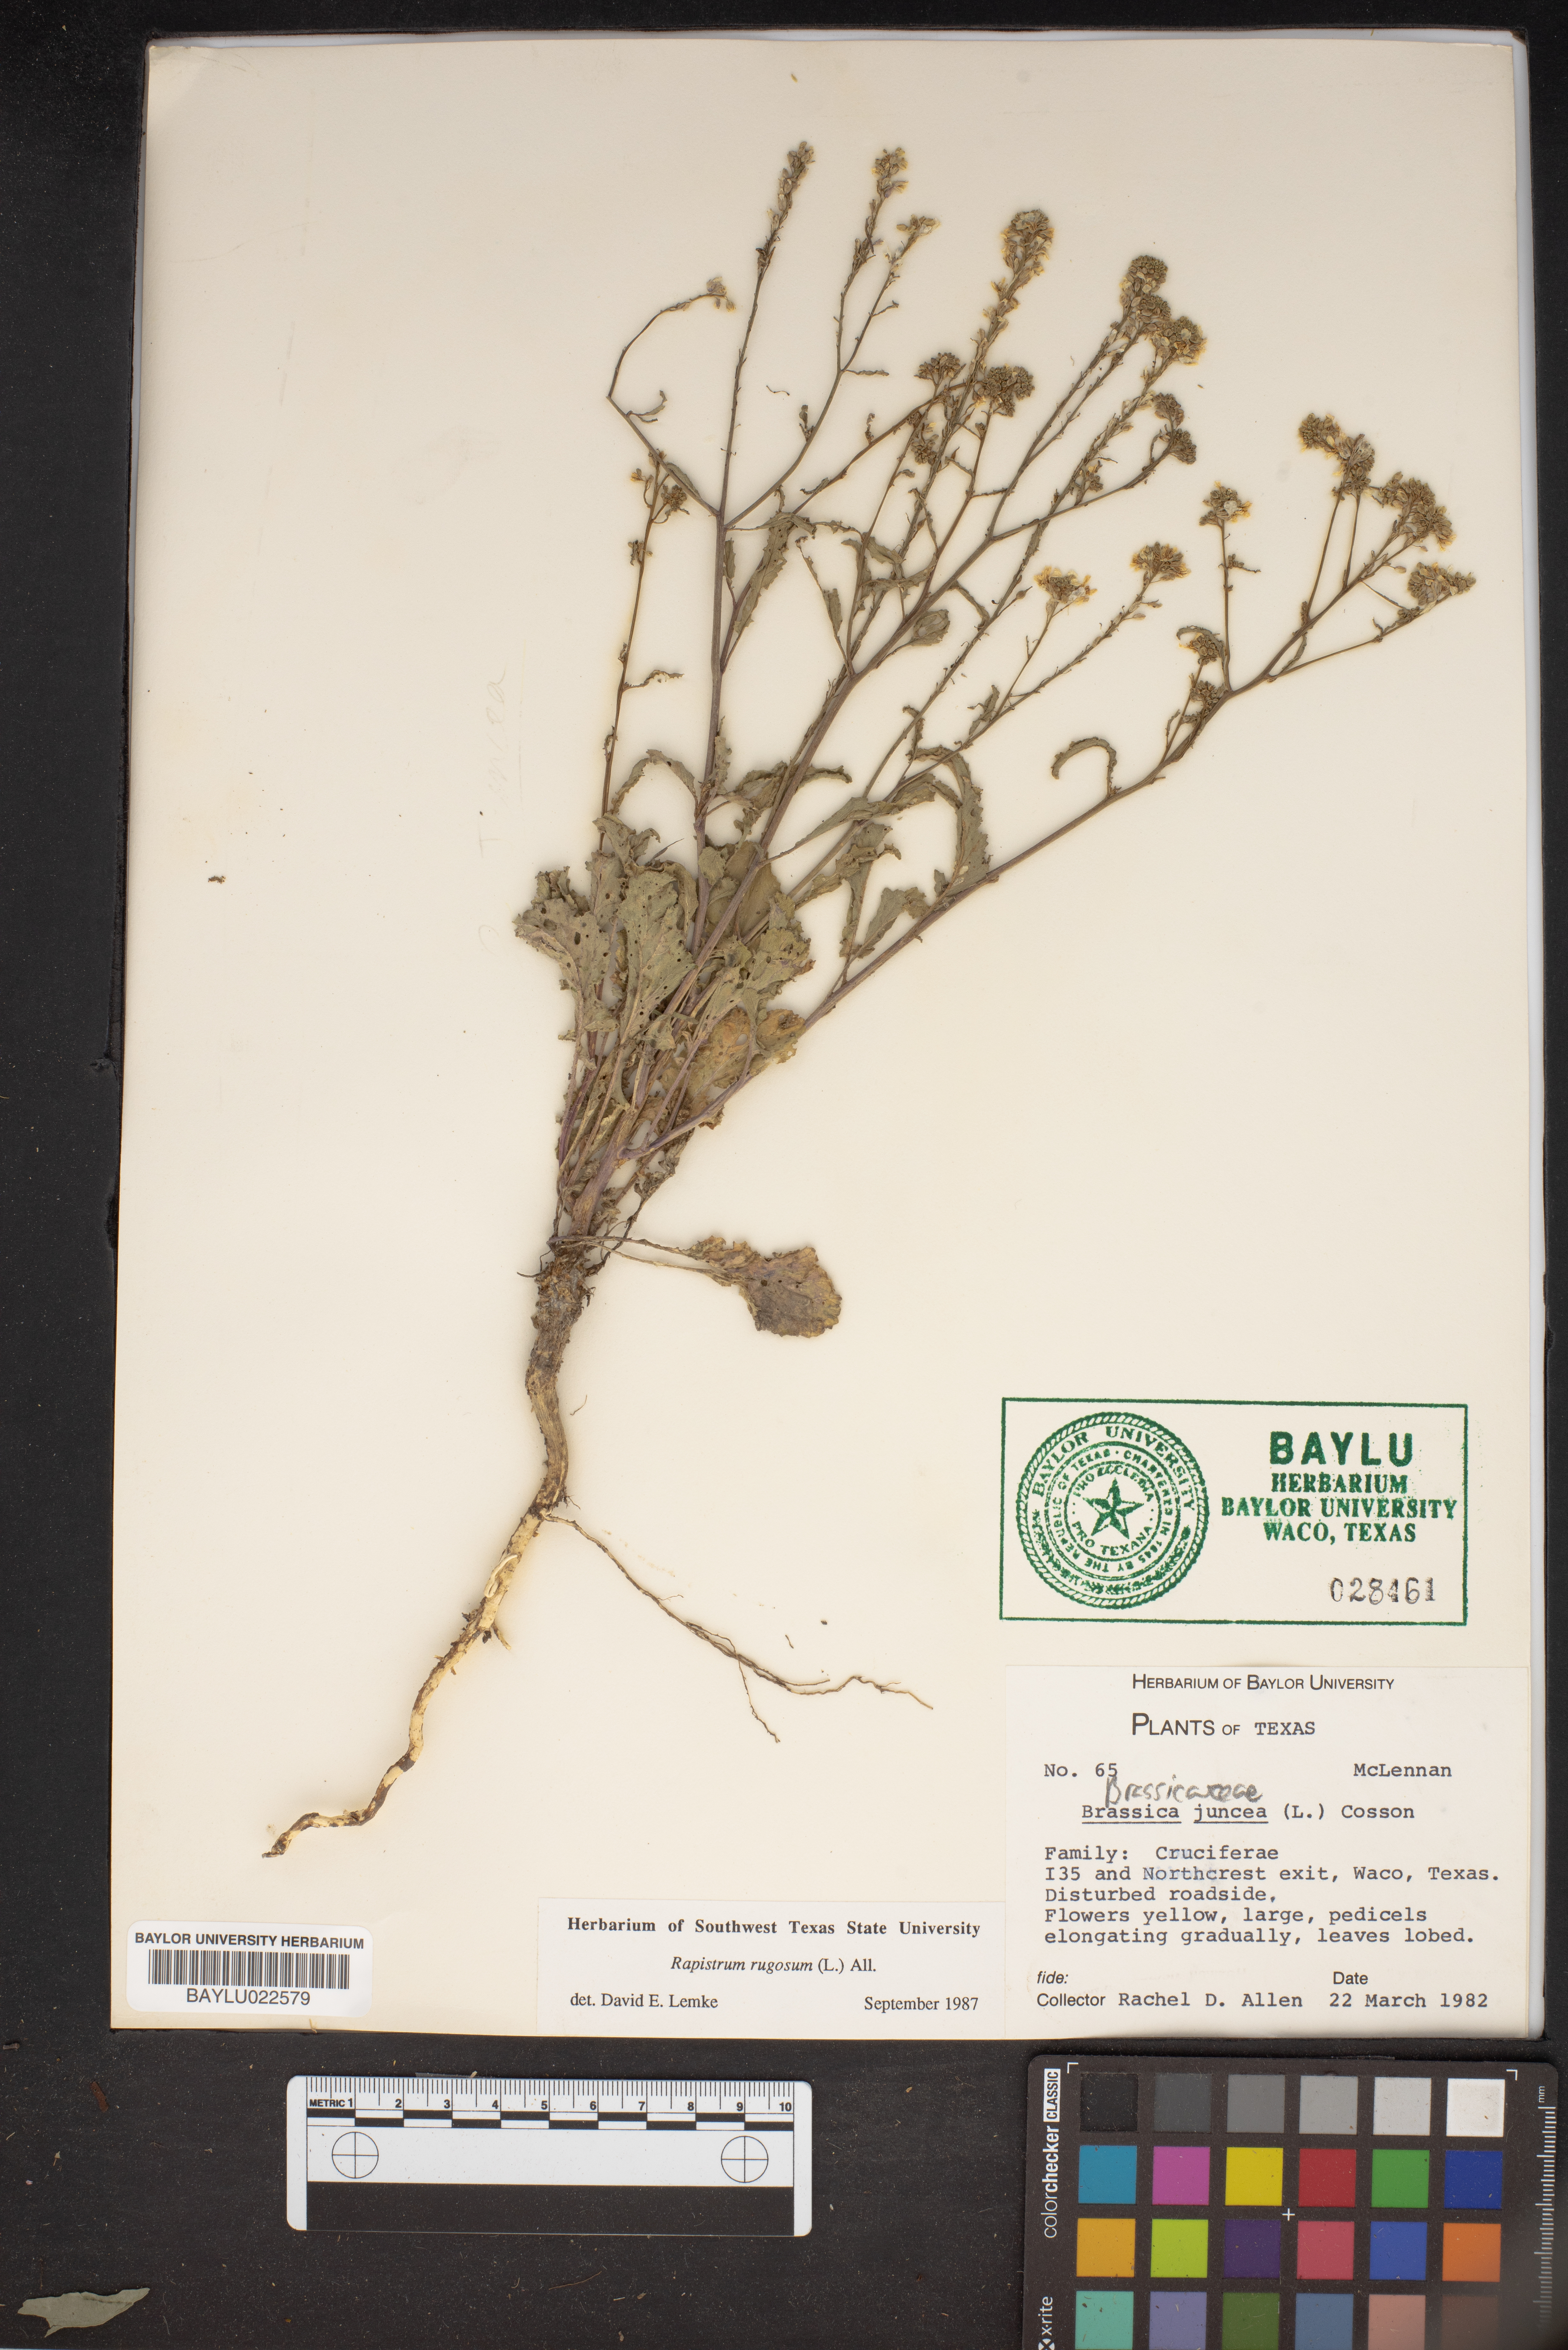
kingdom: Plantae
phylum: Tracheophyta
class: Magnoliopsida
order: Brassicales
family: Brassicaceae
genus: Brassica
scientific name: Brassica juncea
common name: Brown mustard
